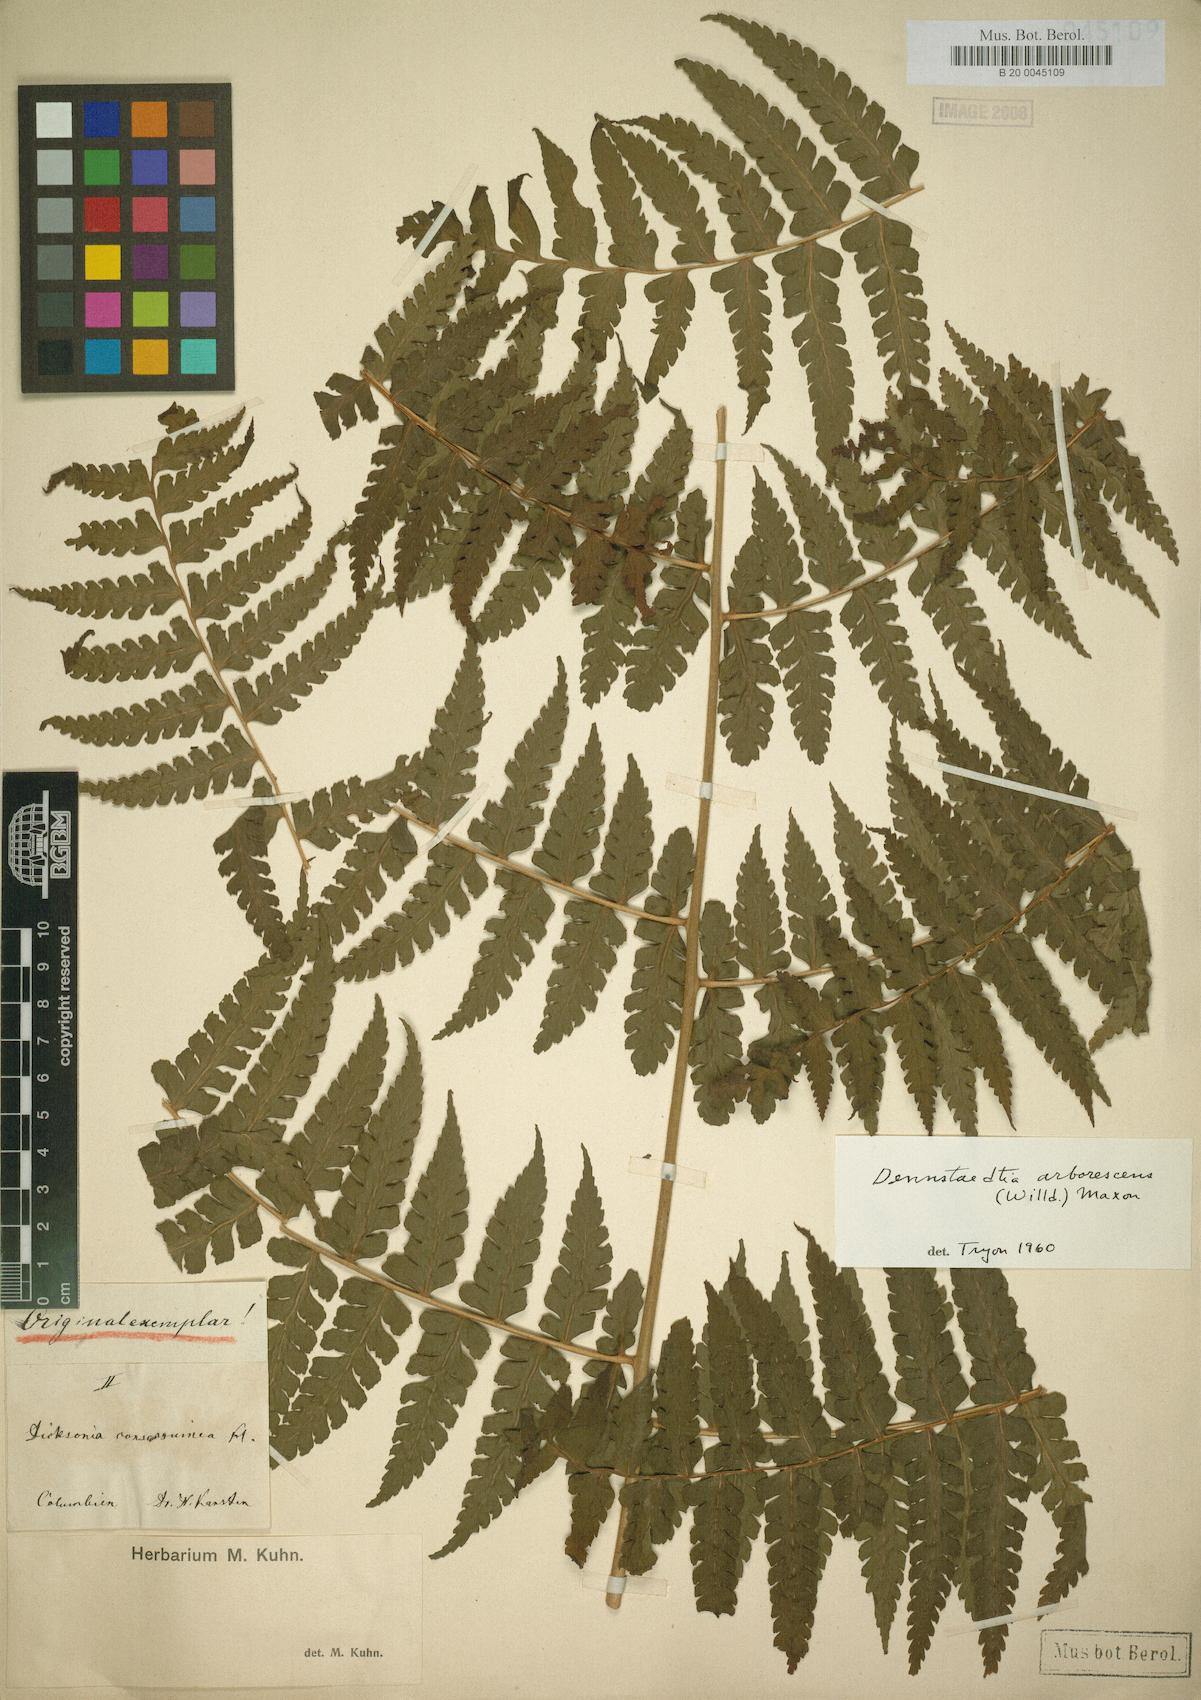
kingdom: Plantae
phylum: Tracheophyta
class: Polypodiopsida
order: Polypodiales
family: Dennstaedtiaceae
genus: Dennstaedtia
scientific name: Dennstaedtia obtusifolia
